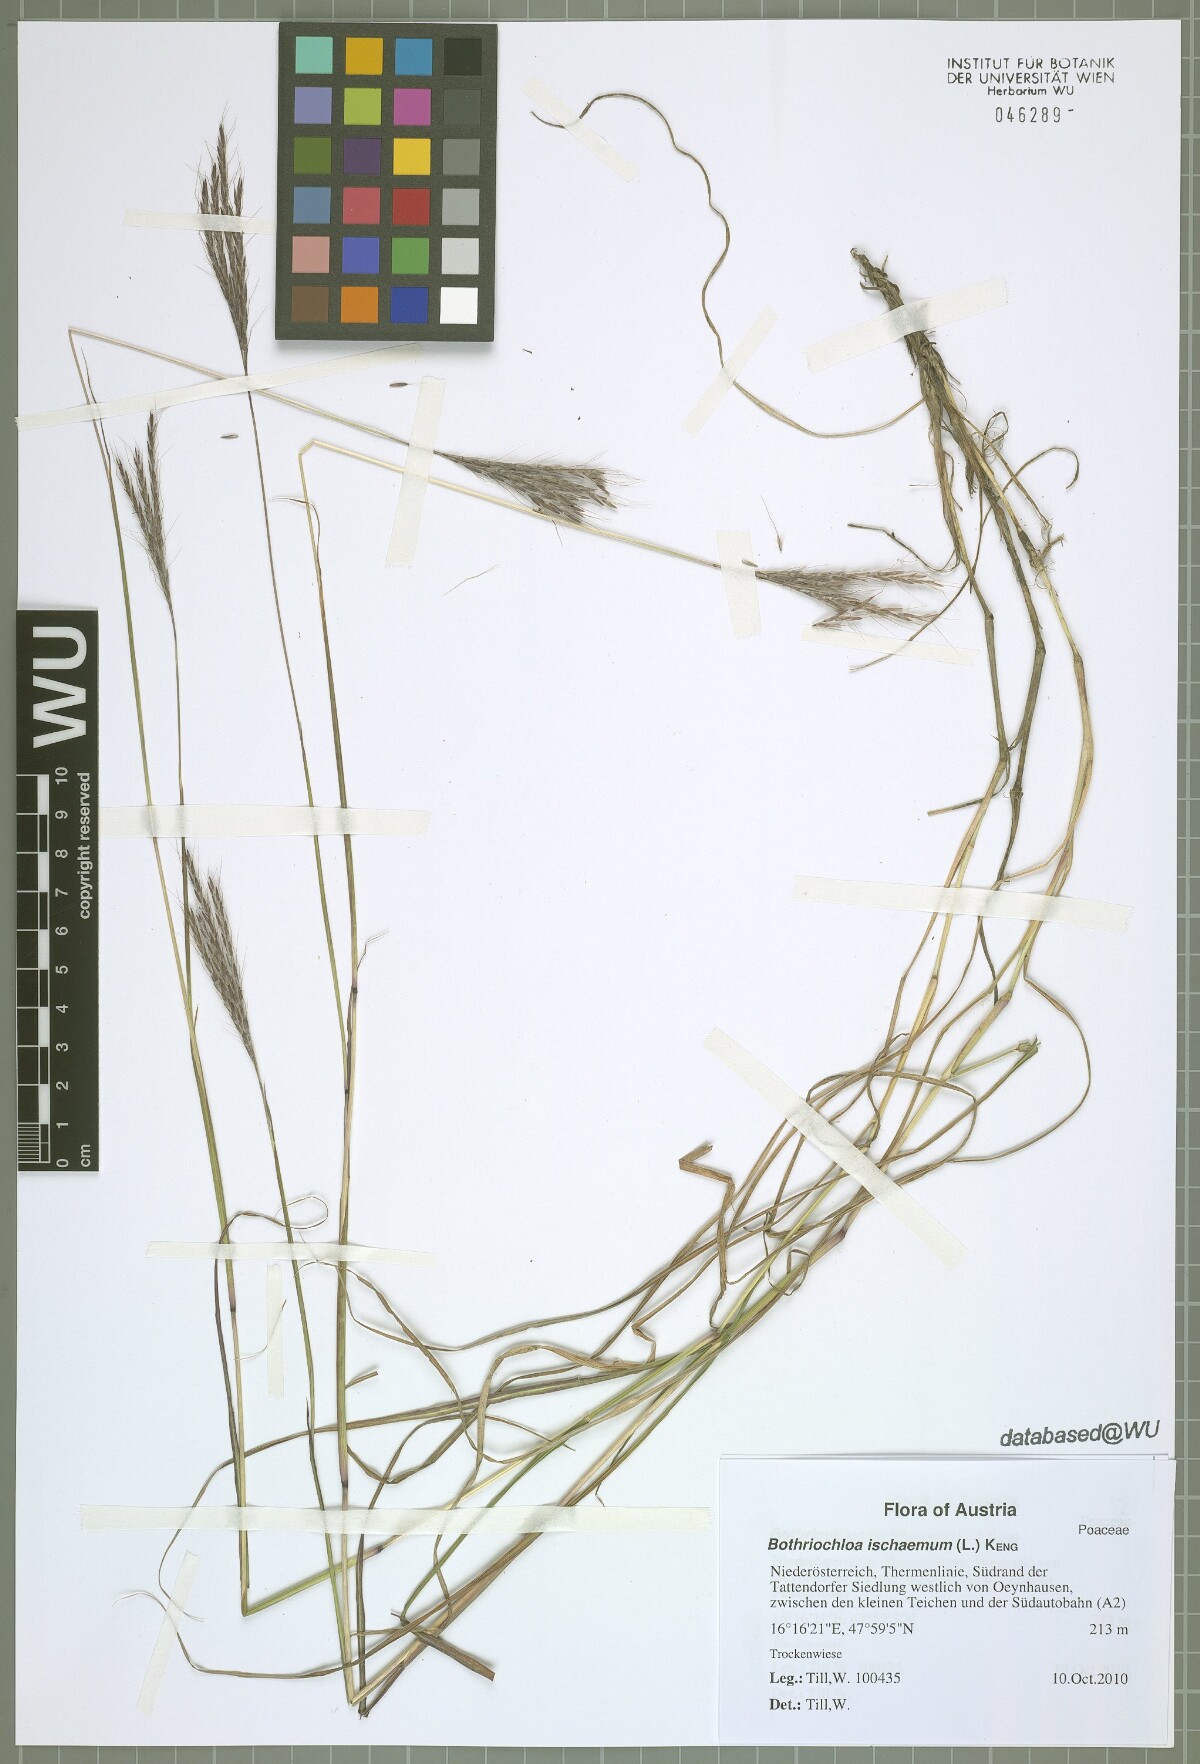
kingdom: Plantae
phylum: Tracheophyta
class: Liliopsida
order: Poales
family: Poaceae
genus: Bothriochloa
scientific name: Bothriochloa ischaemum
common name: Yellow bluestem
